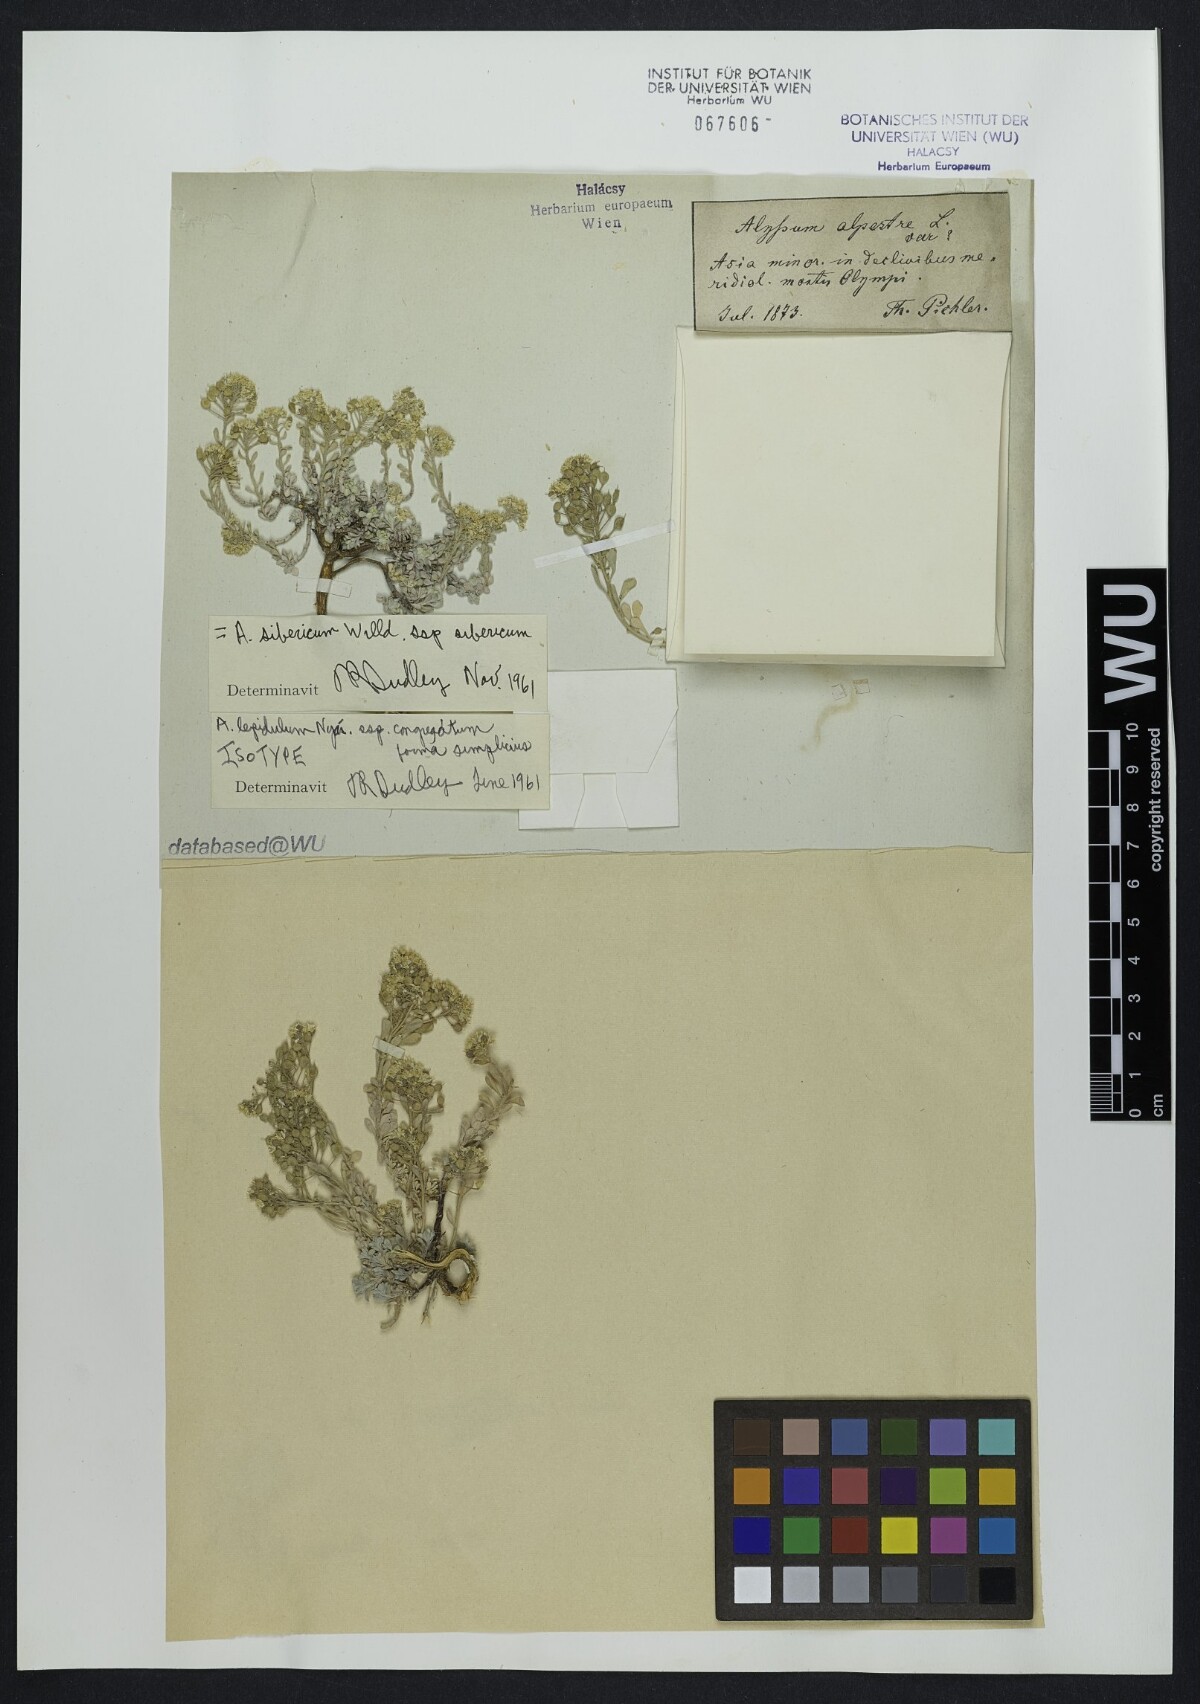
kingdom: Plantae
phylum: Tracheophyta
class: Magnoliopsida
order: Brassicales
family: Brassicaceae
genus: Odontarrhena
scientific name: Odontarrhena sibirica
